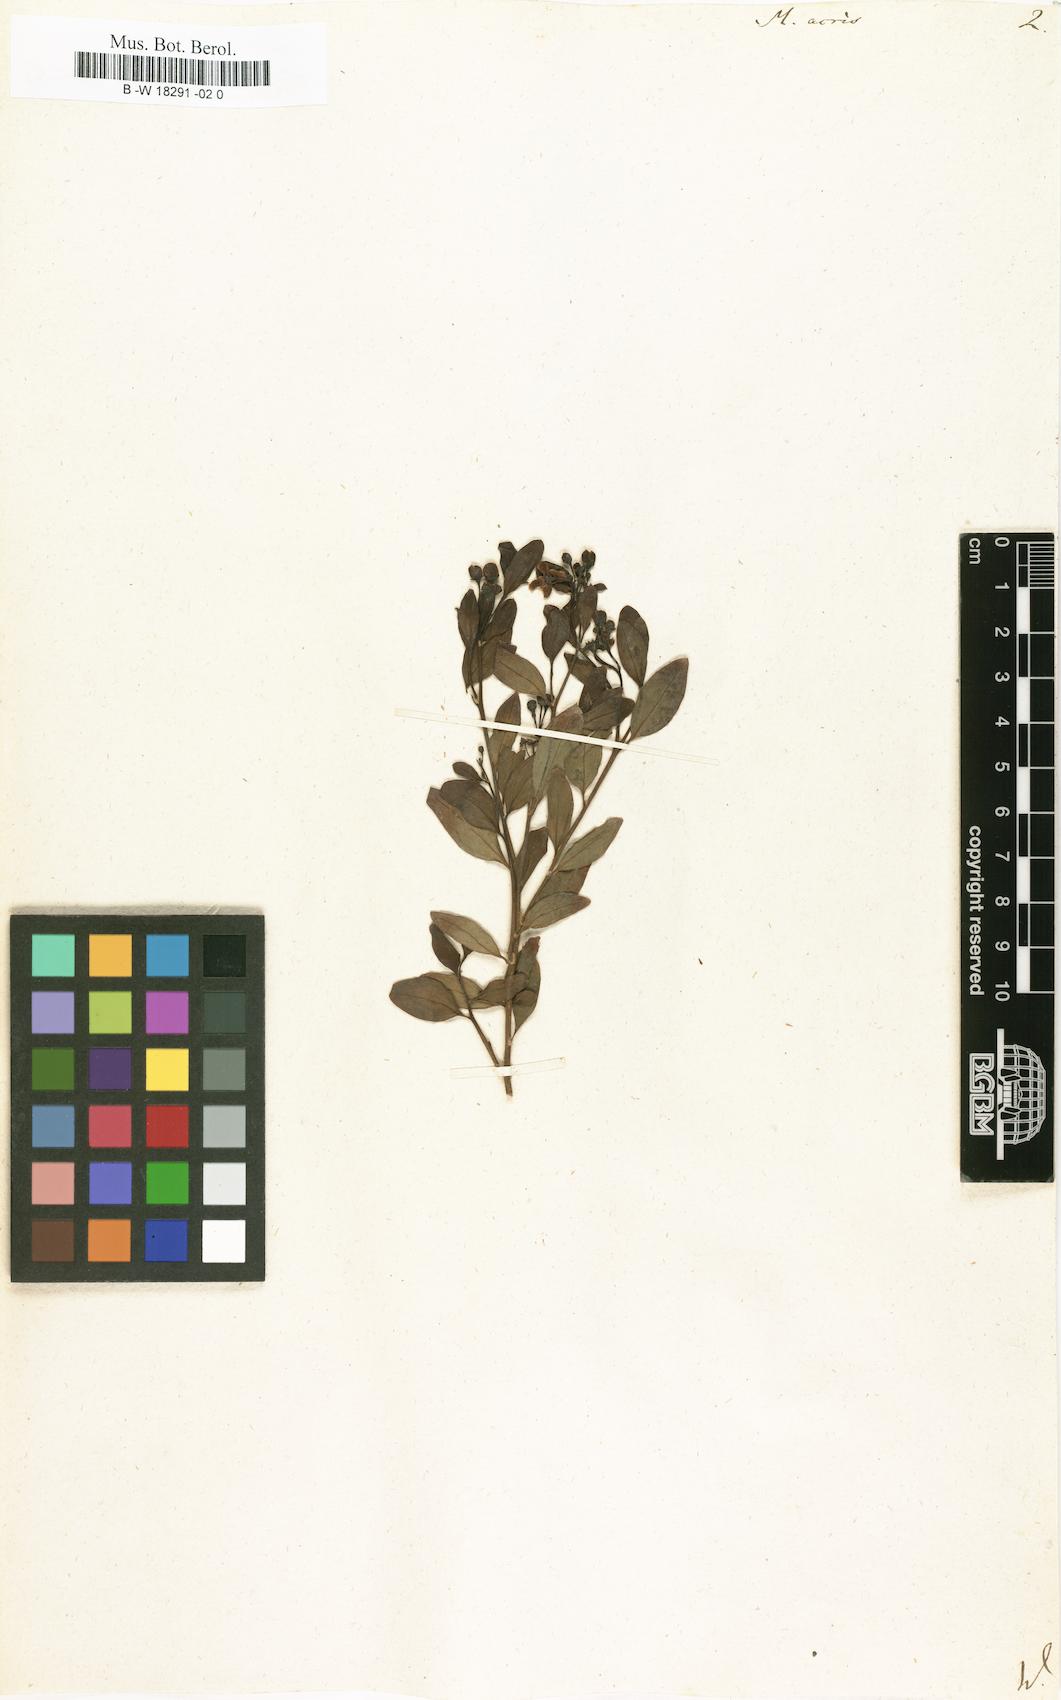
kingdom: Plantae
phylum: Tracheophyta
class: Magnoliopsida
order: Solanales
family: Montiniaceae
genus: Montinia
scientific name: Montinia caryophyllacea
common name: Wild clove-bush
